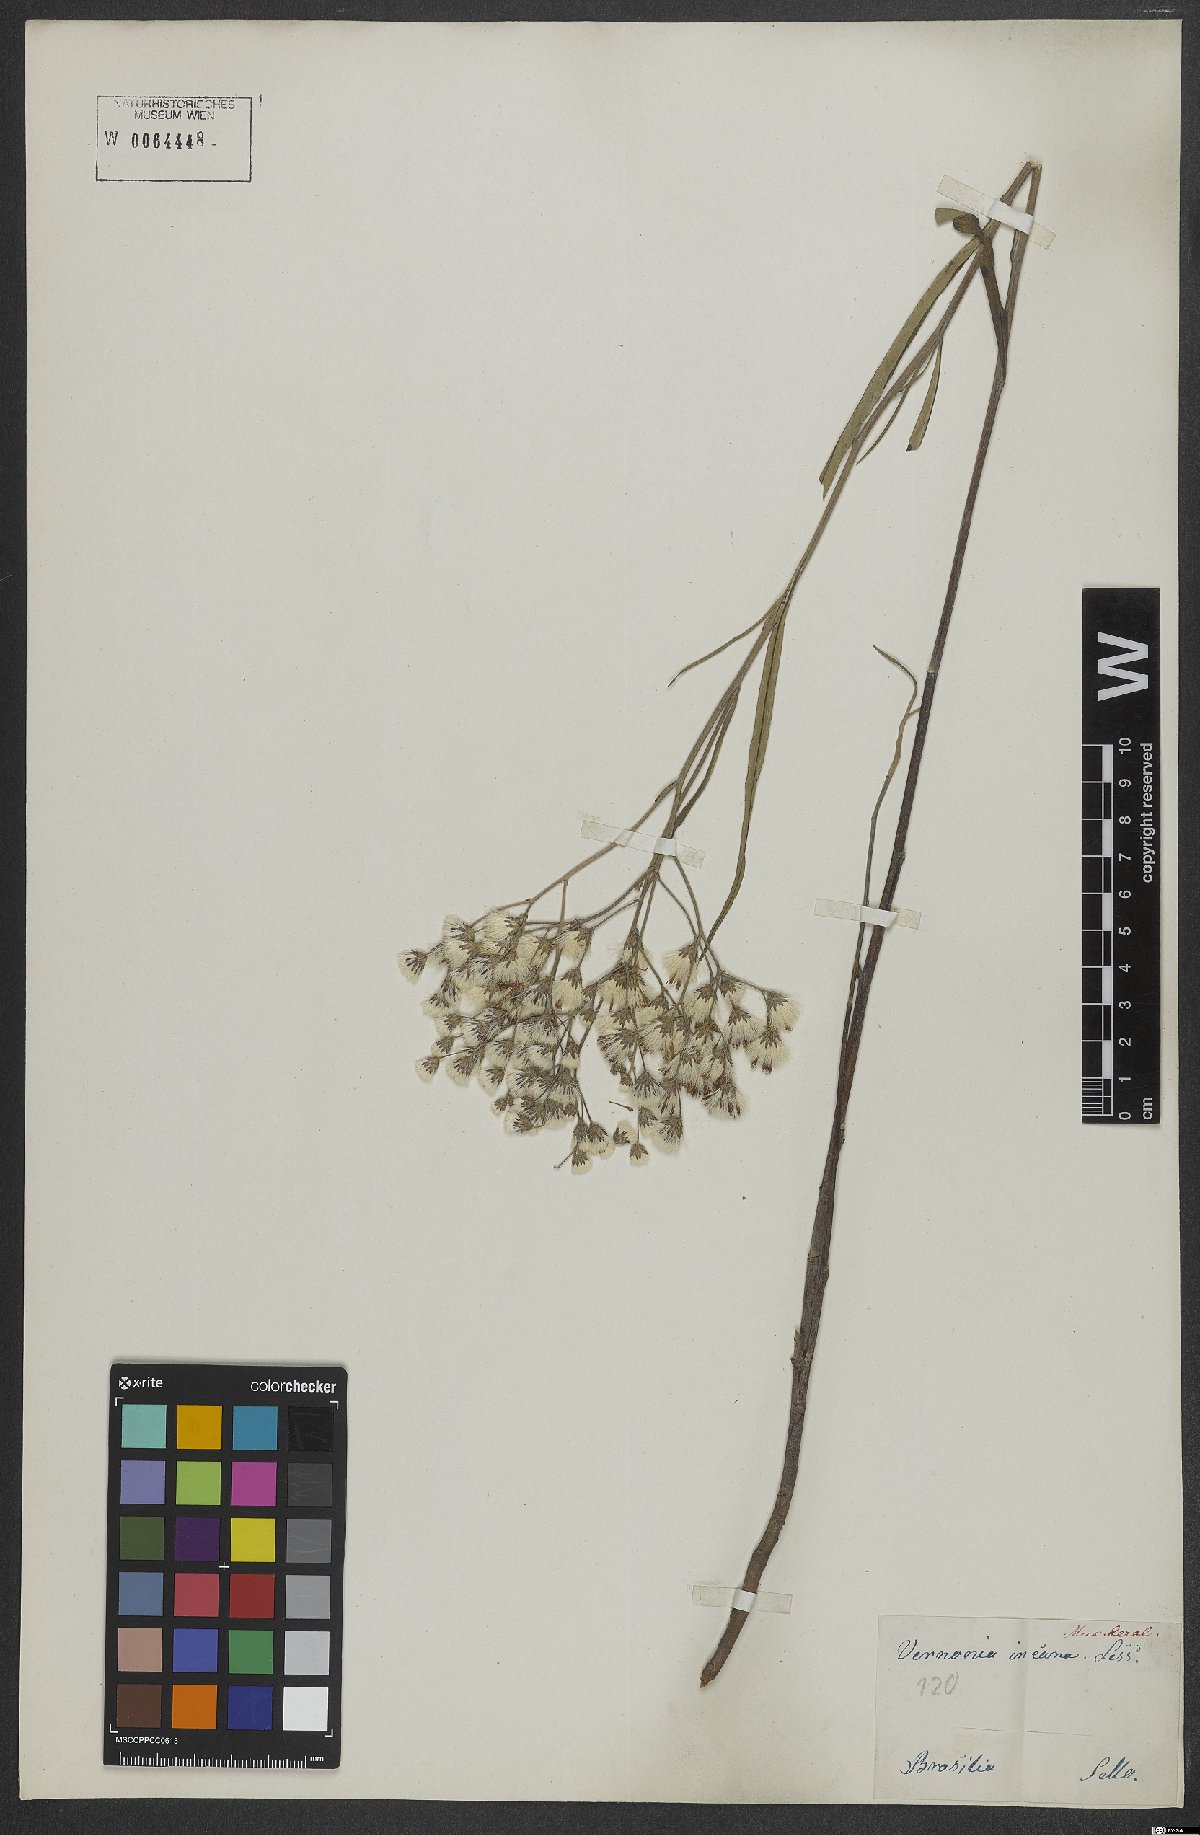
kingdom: Plantae
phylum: Tracheophyta
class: Magnoliopsida
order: Asterales
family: Asteraceae
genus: Vernonia
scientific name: Vernonia incana
